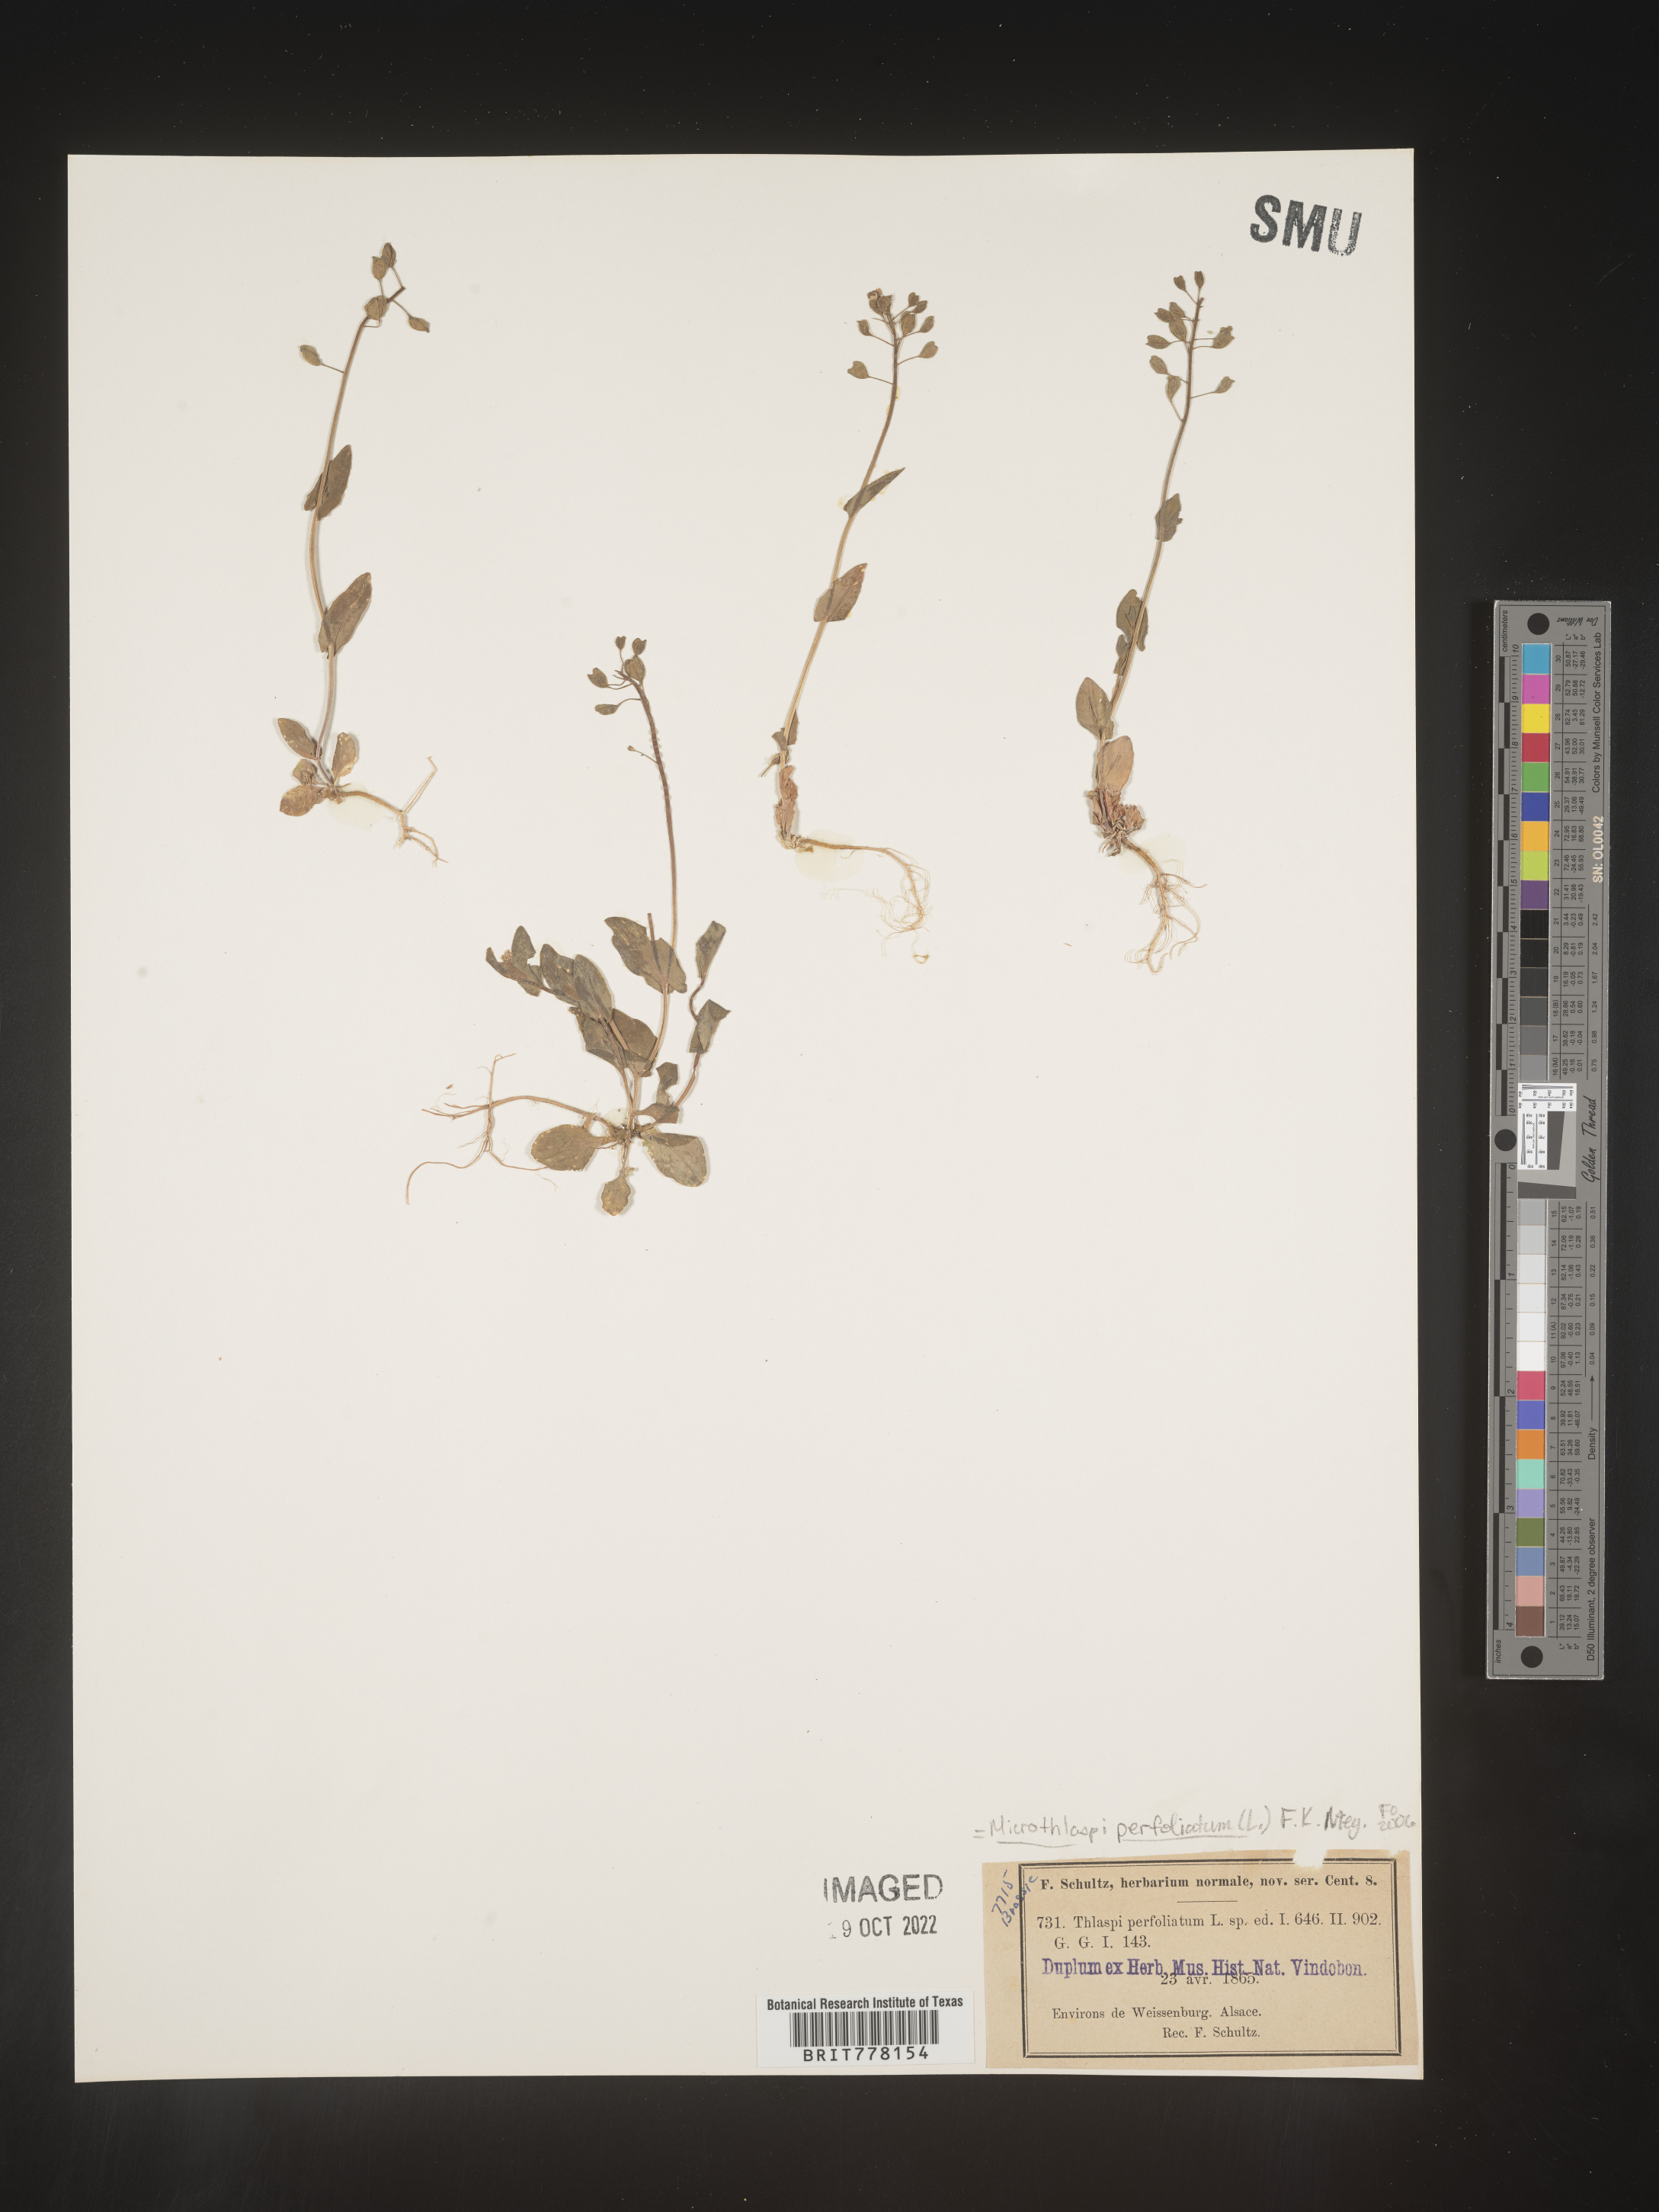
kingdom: Plantae
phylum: Tracheophyta
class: Magnoliopsida
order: Brassicales
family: Brassicaceae
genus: Noccaea
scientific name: Noccaea
